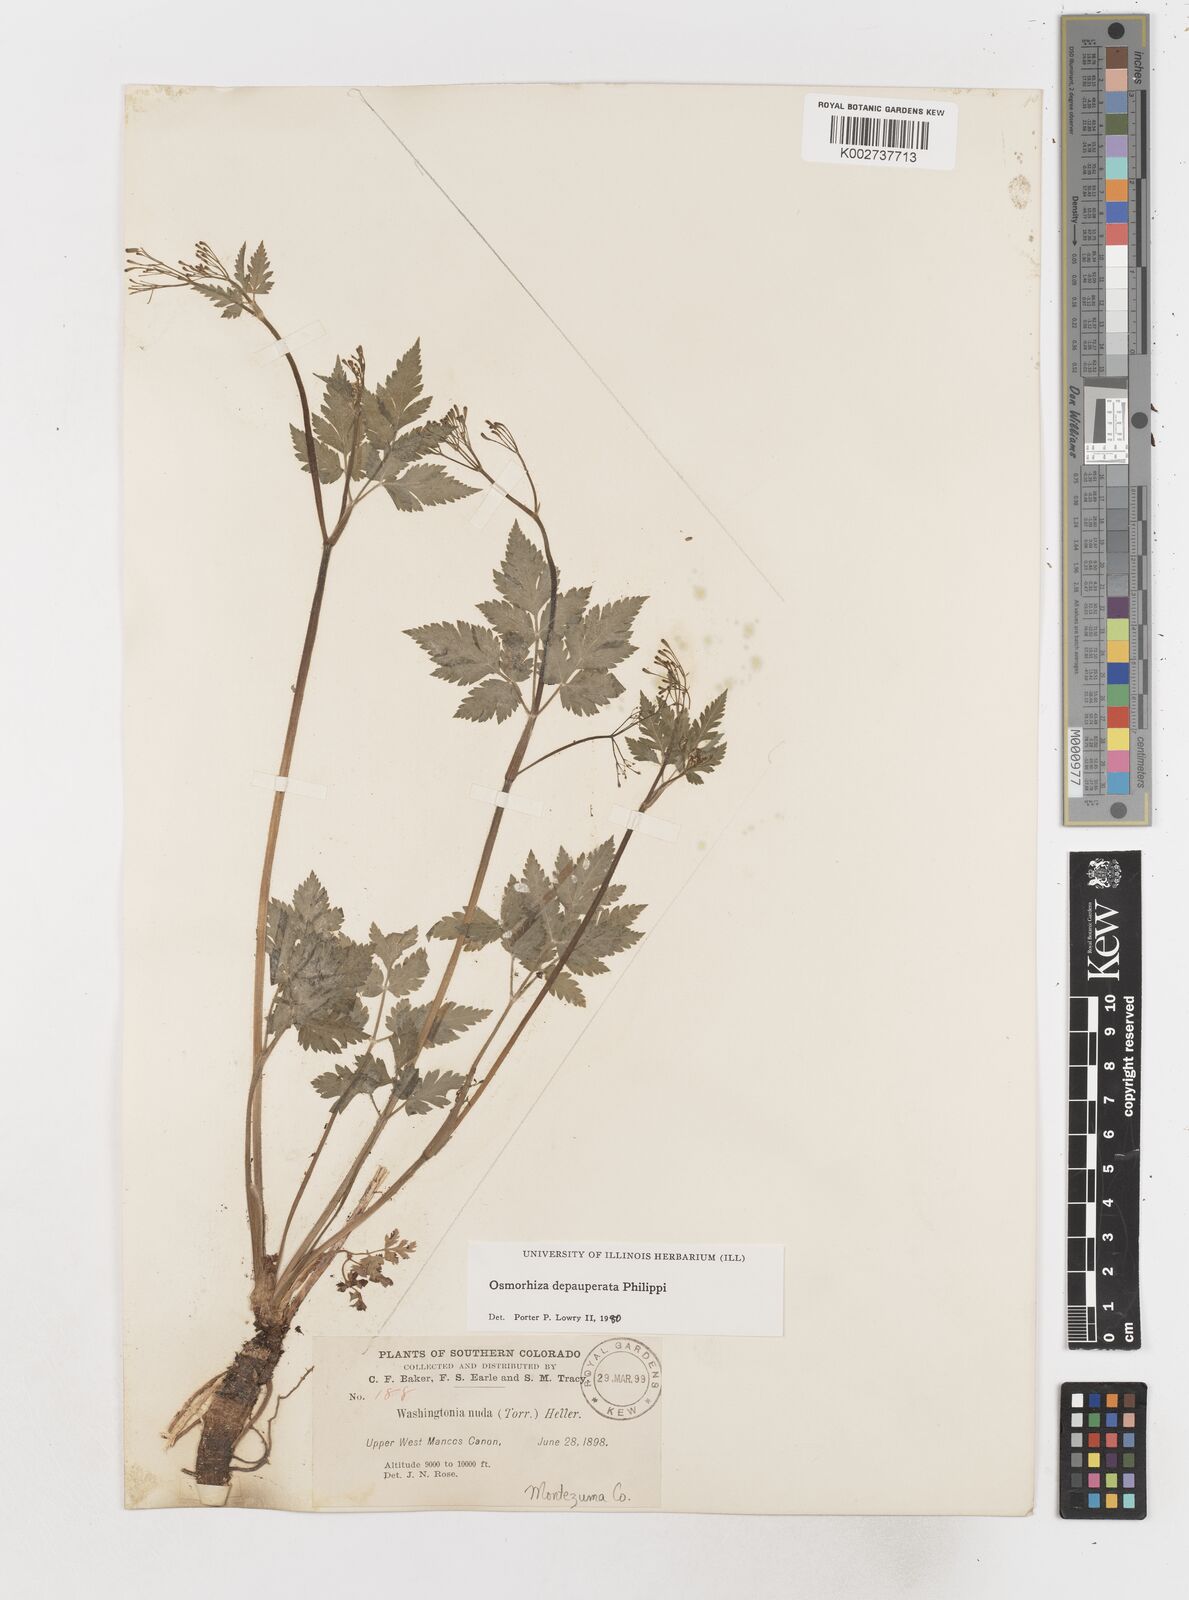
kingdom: Plantae
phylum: Tracheophyta
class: Magnoliopsida
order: Apiales
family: Apiaceae
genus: Osmorhiza
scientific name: Osmorhiza depauperata
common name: Blunt sweet cicely
